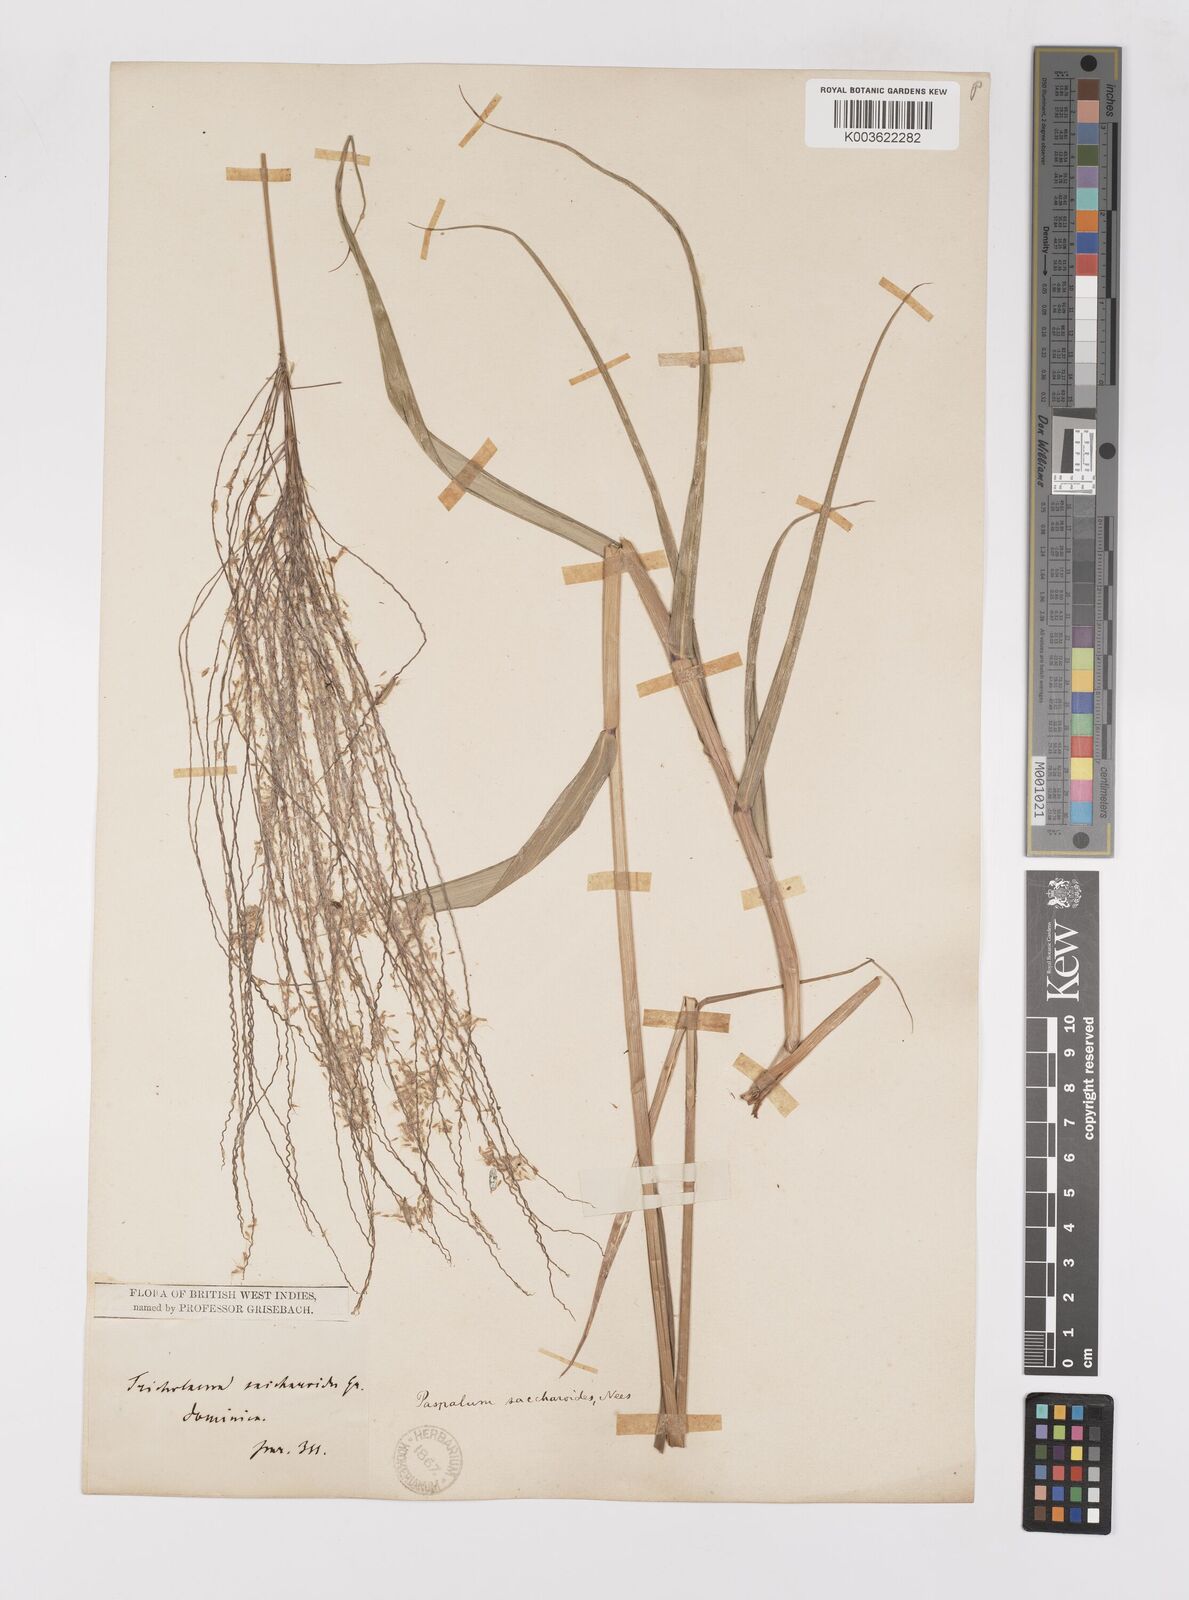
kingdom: Plantae
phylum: Tracheophyta
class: Liliopsida
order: Poales
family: Poaceae
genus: Paspalum
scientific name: Paspalum saccharoides
